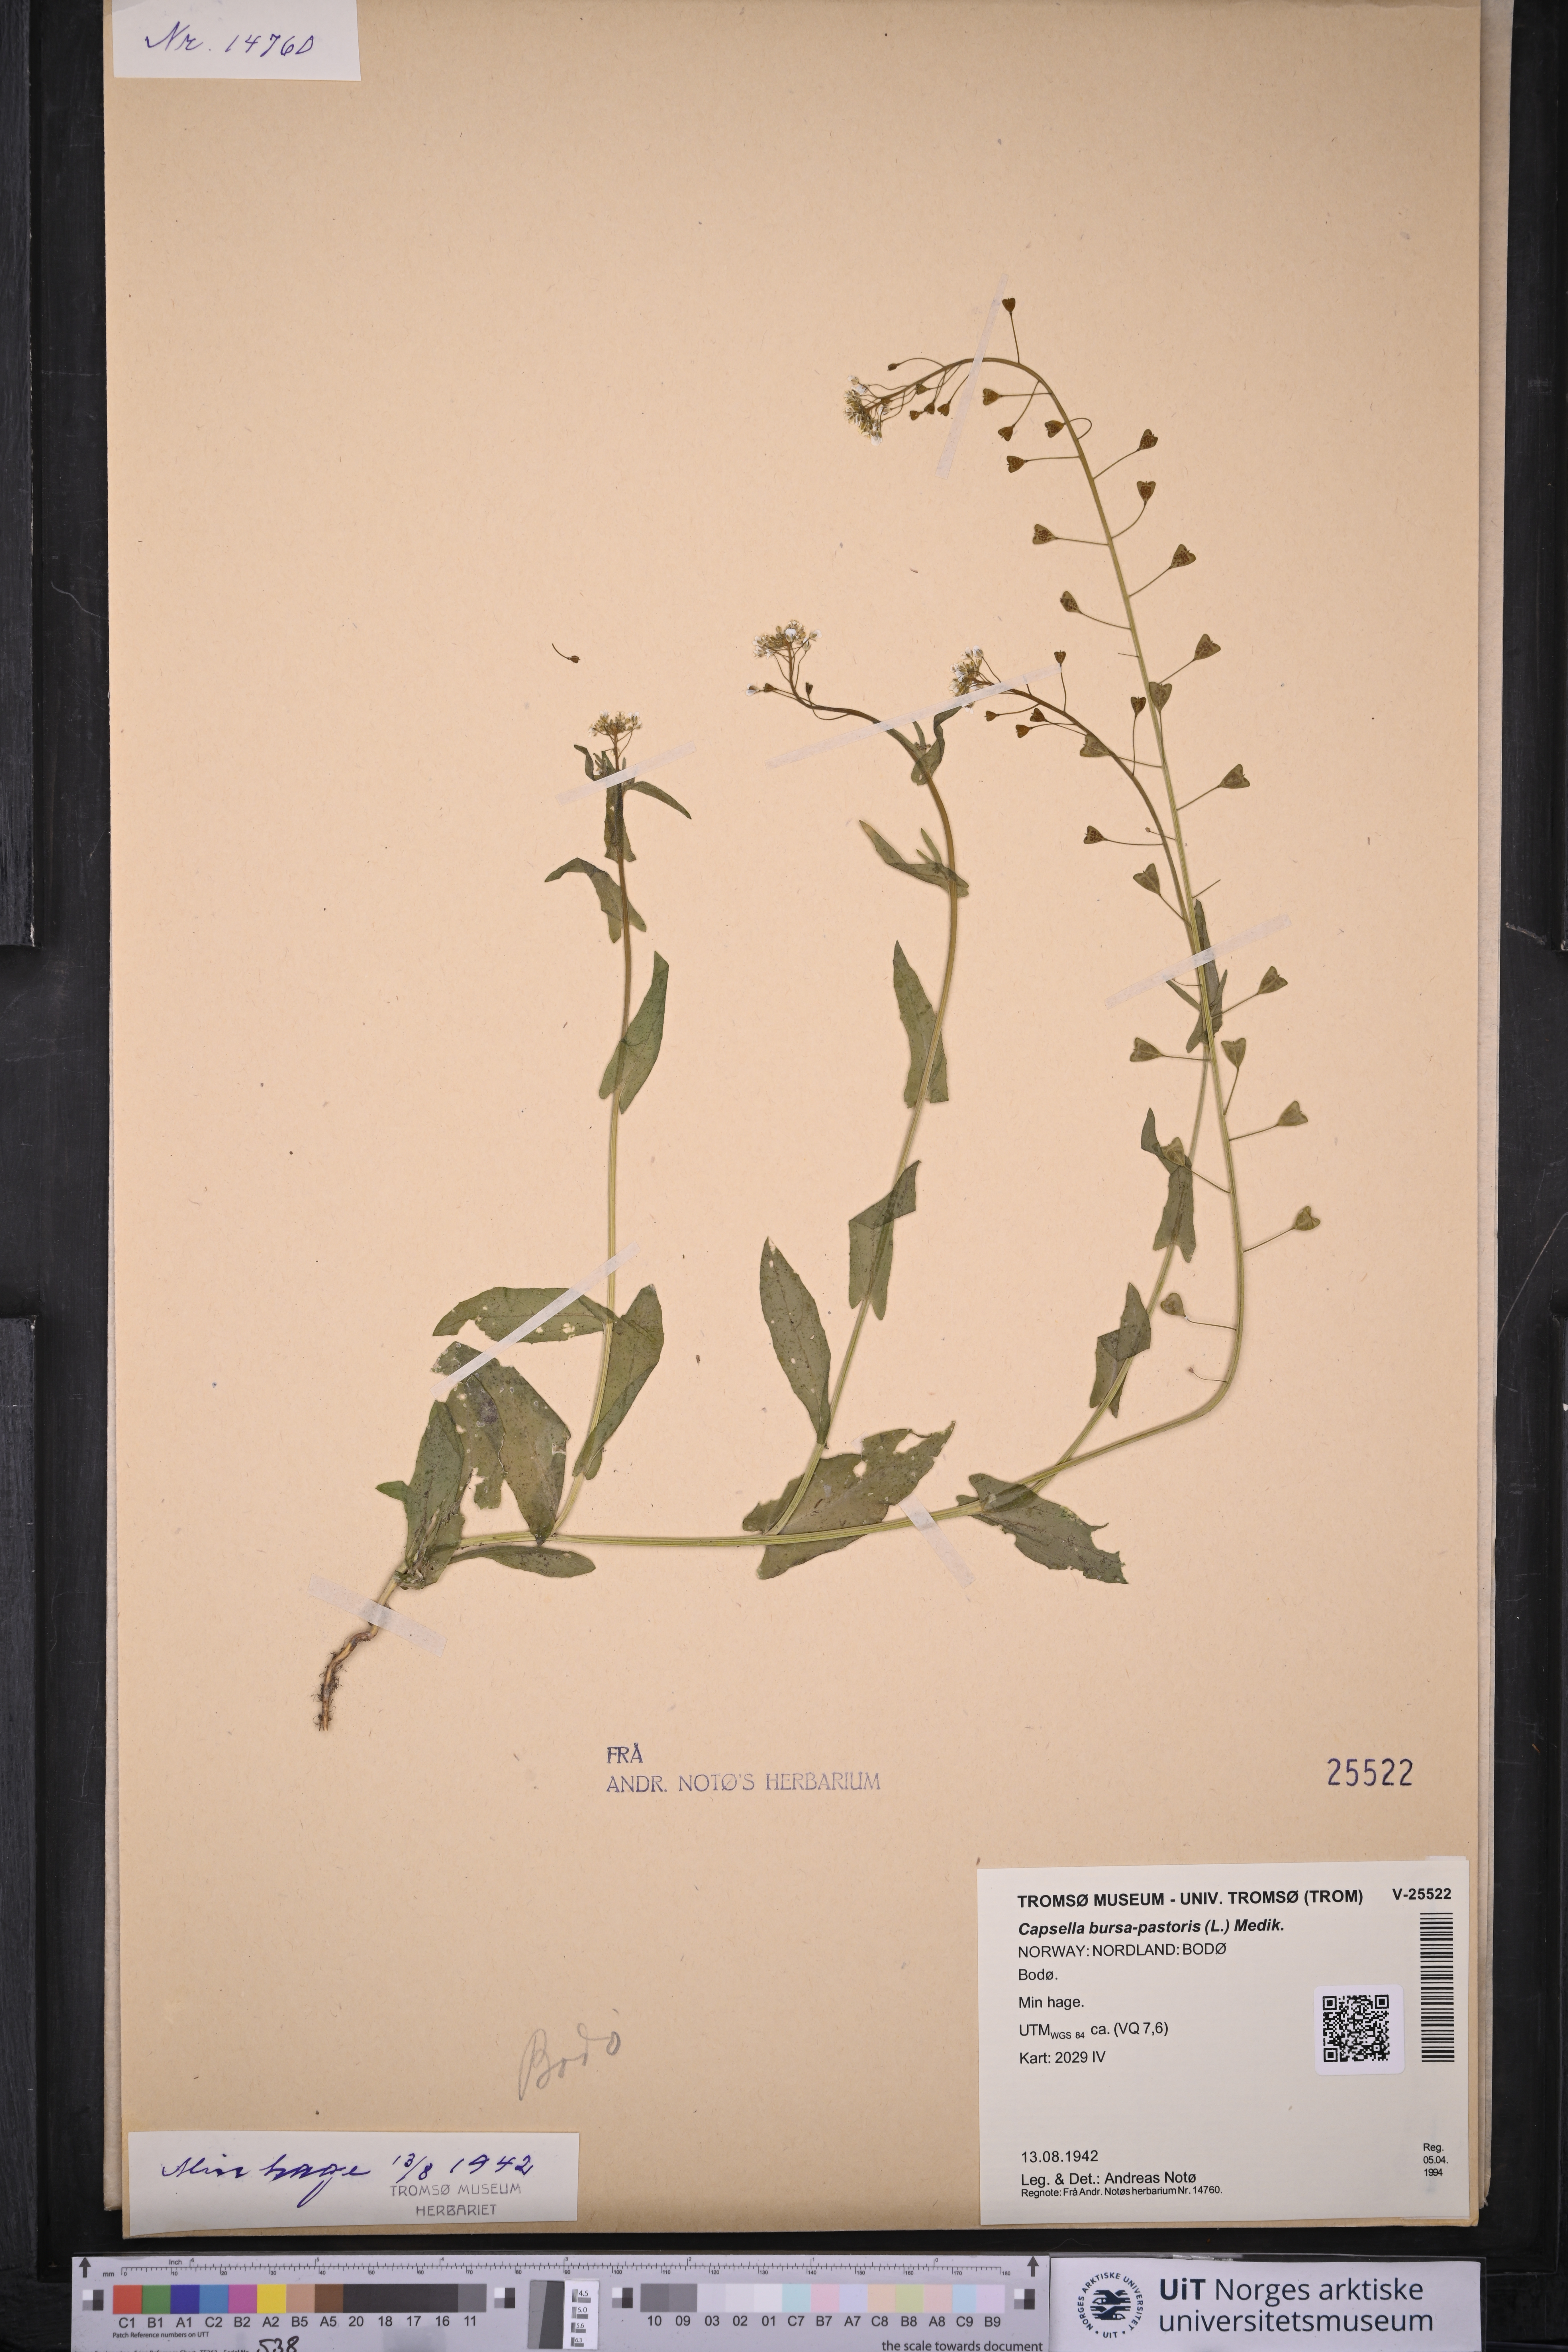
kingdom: Plantae
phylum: Tracheophyta
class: Magnoliopsida
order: Brassicales
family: Brassicaceae
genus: Capsella
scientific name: Capsella bursa-pastoris
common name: Shepherd's purse
